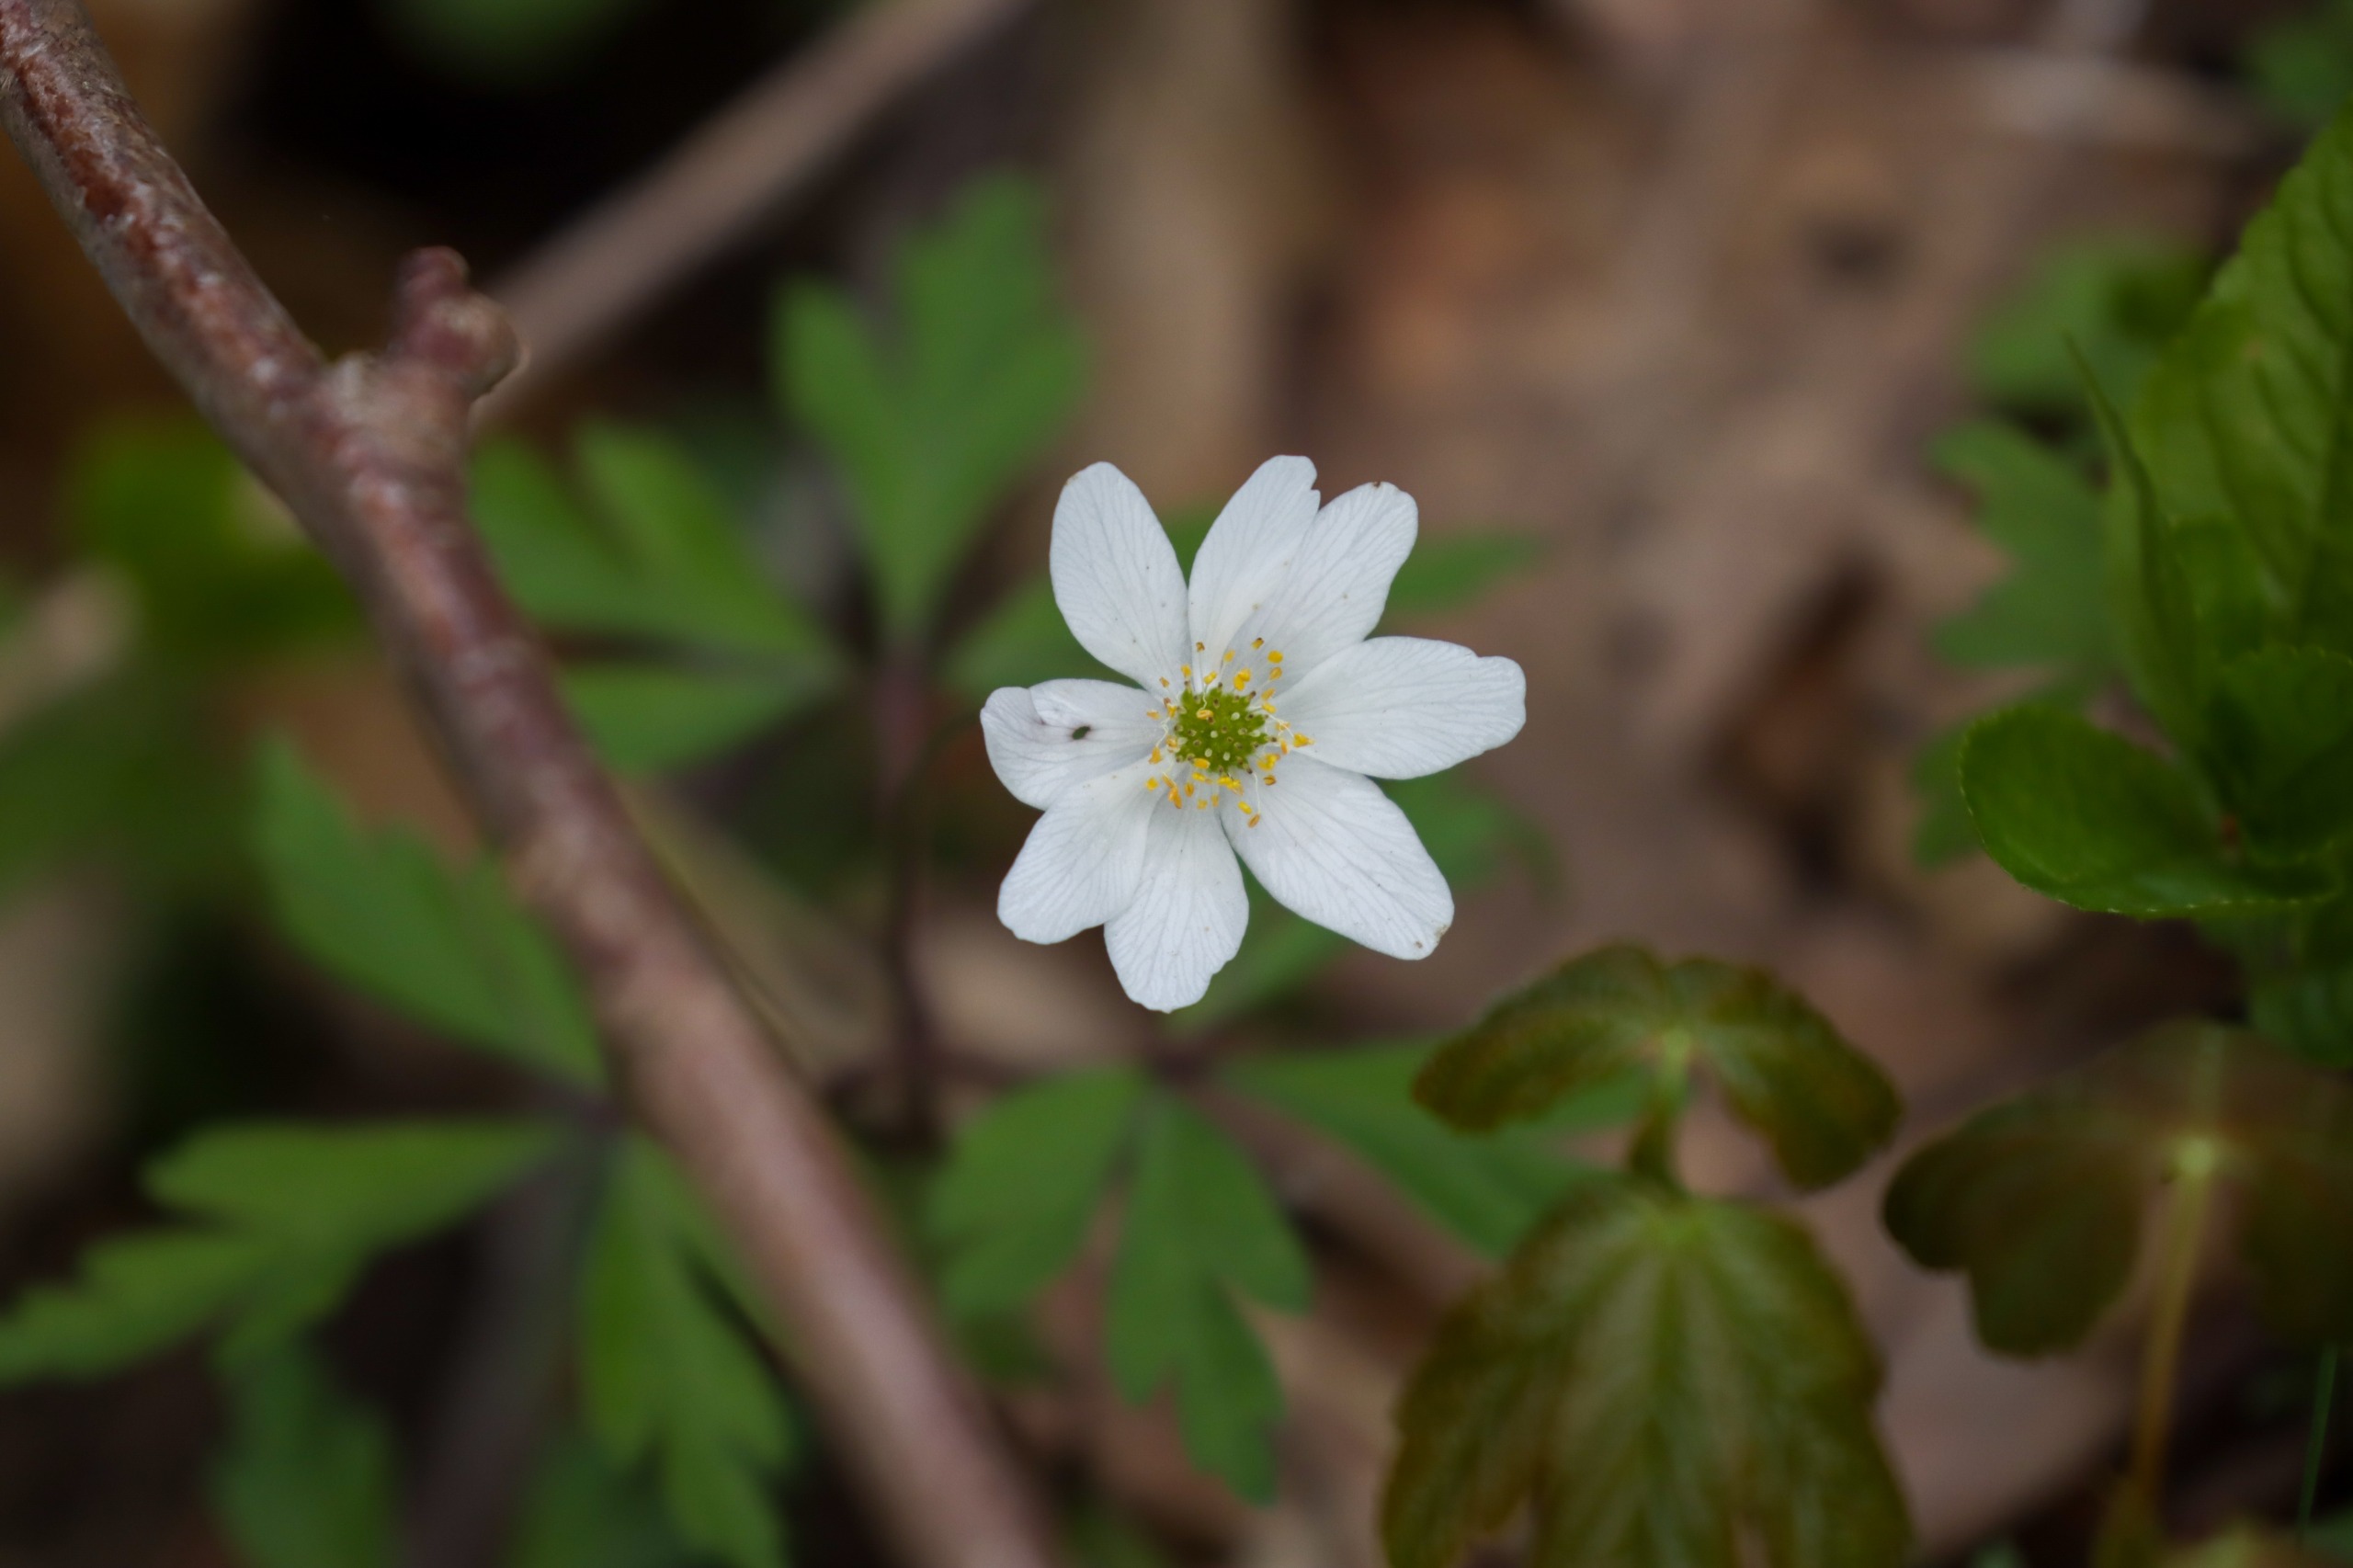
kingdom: Plantae
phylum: Tracheophyta
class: Magnoliopsida
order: Ranunculales
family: Ranunculaceae
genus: Anemone
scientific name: Anemone nemorosa
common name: Hvid anemone
